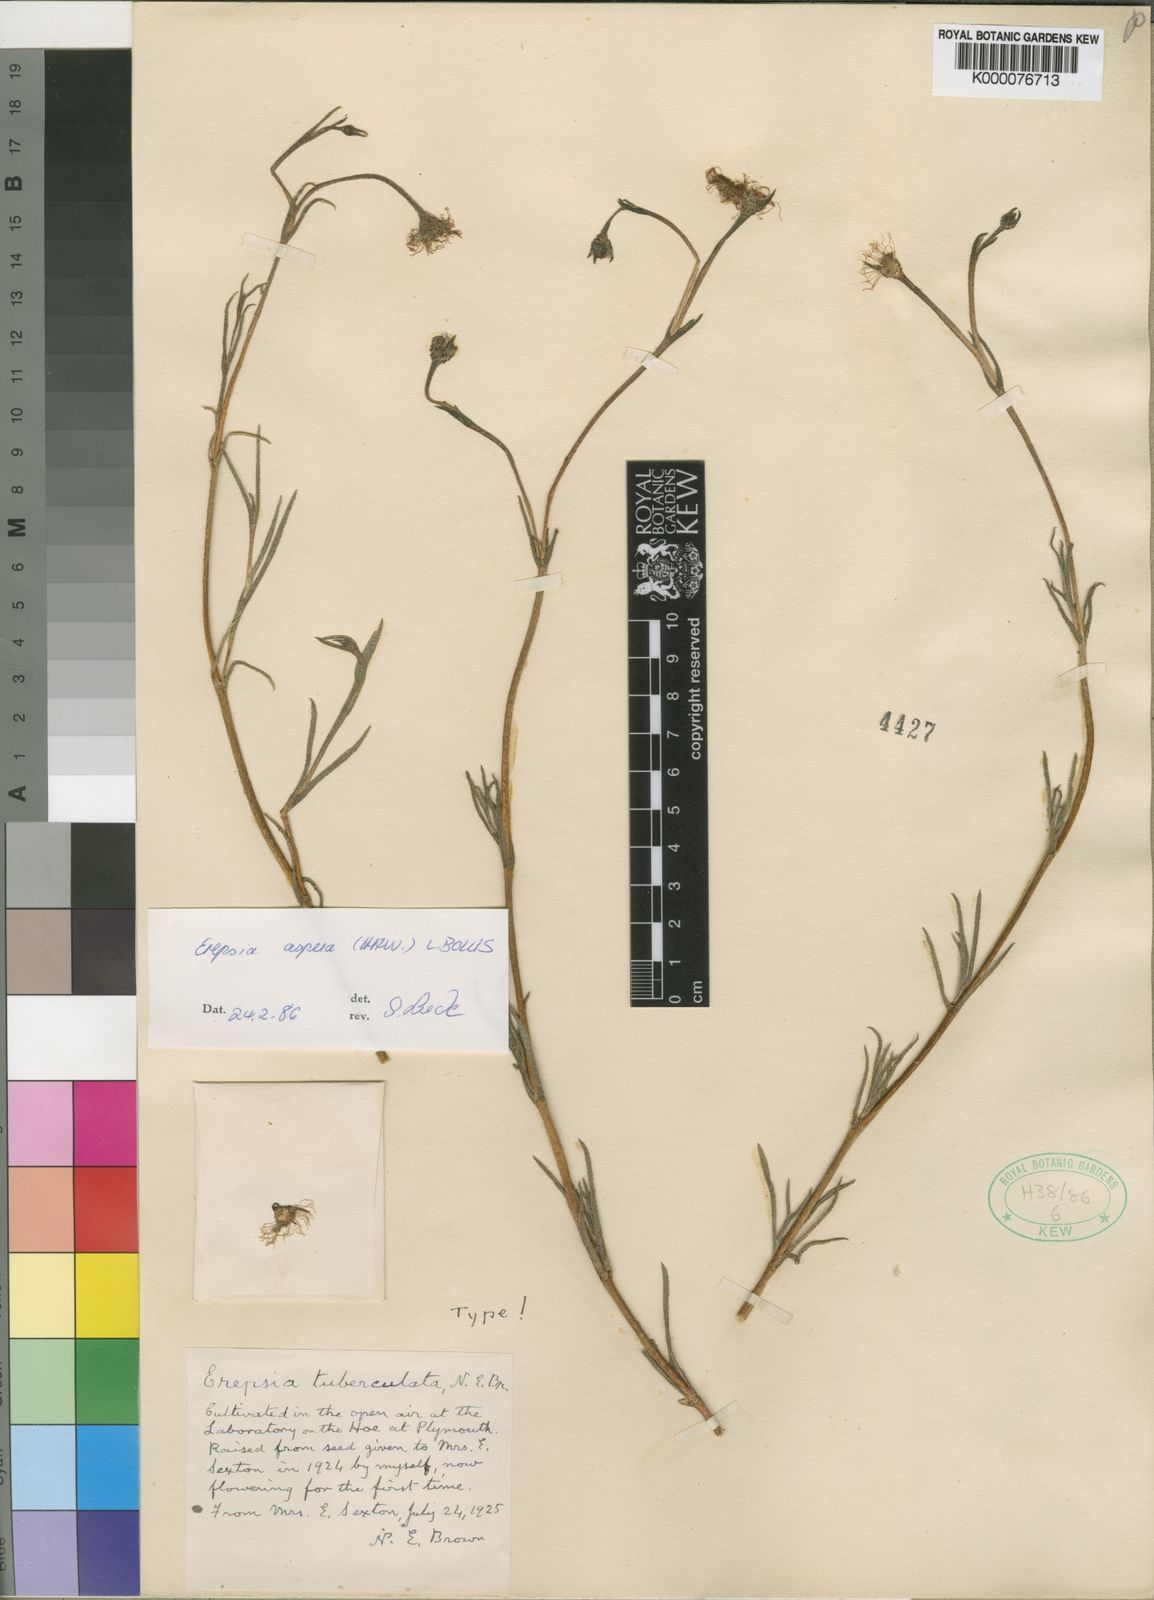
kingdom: Plantae
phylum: Tracheophyta
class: Magnoliopsida
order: Caryophyllales
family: Aizoaceae
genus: Erepsia
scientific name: Erepsia aspera
